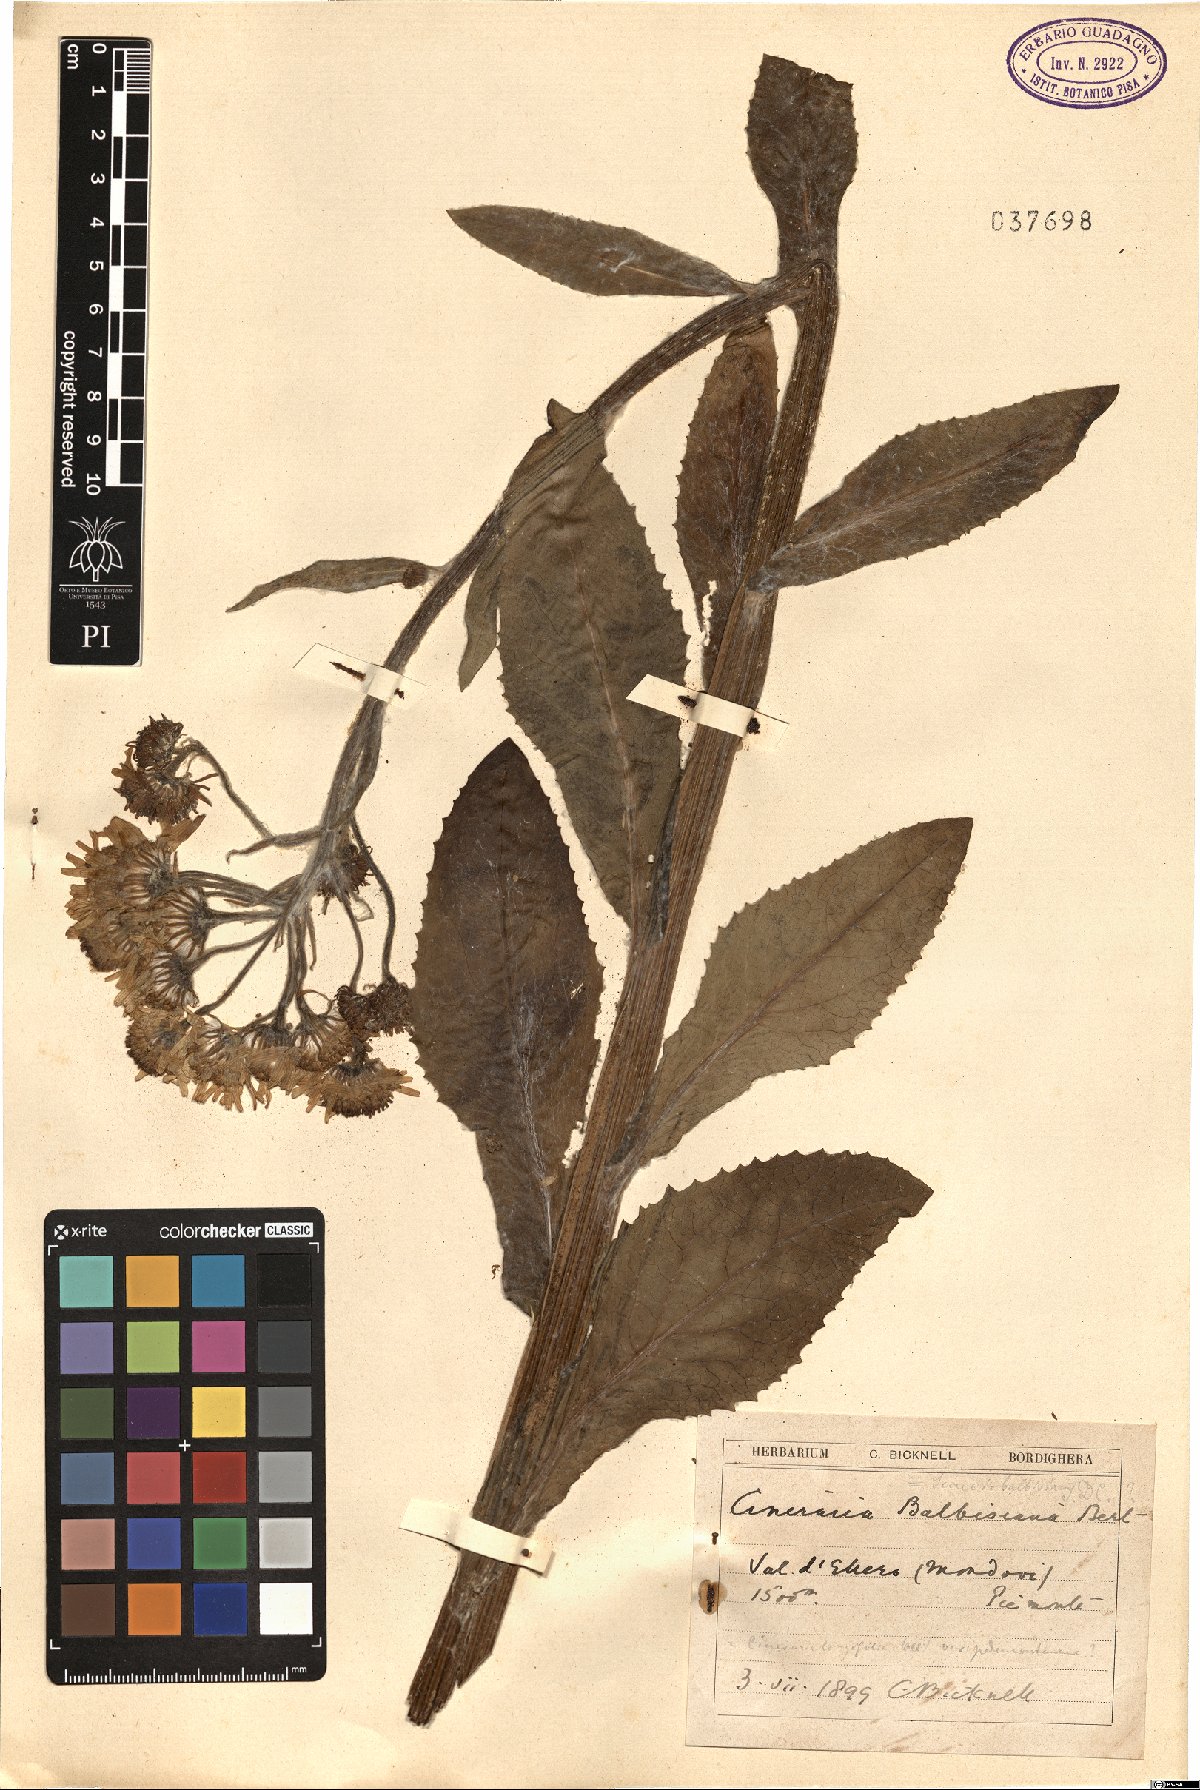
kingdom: Plantae
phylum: Tracheophyta
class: Magnoliopsida
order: Asterales
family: Asteraceae
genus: Tephroseris
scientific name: Tephroseris balbisiana
